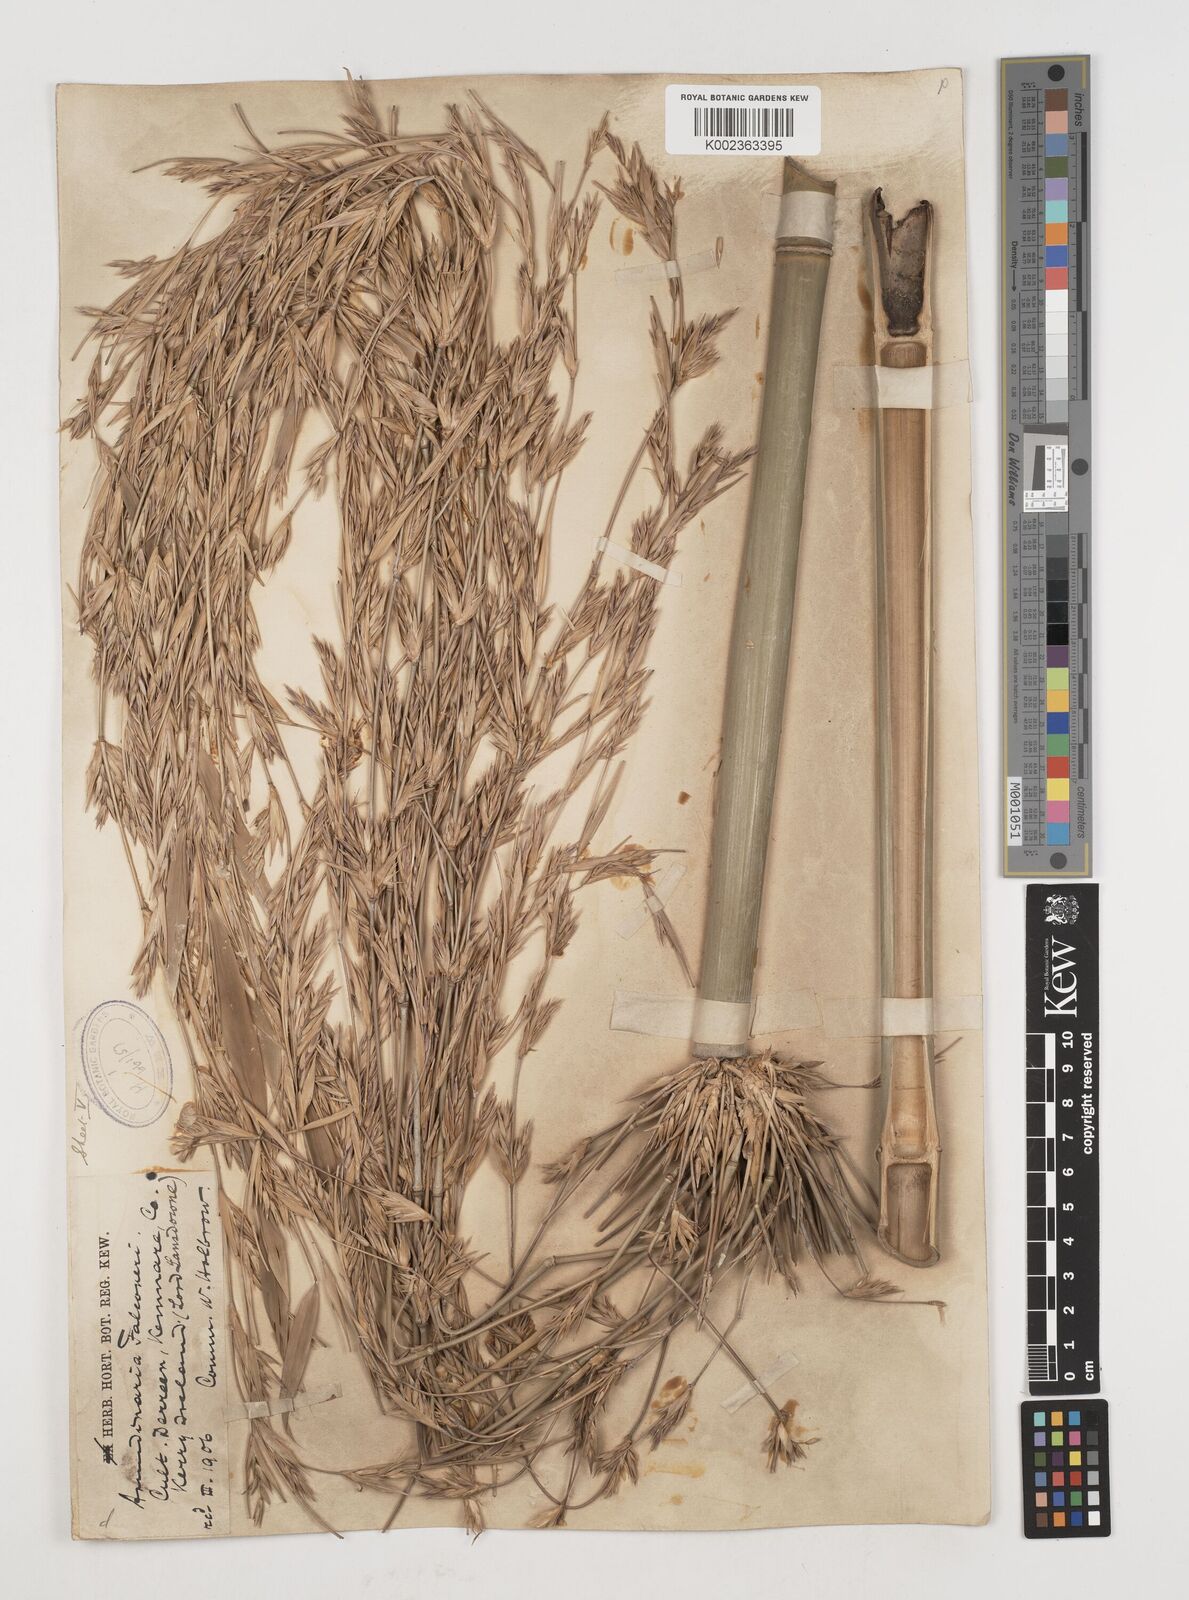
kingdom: Plantae
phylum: Tracheophyta
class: Liliopsida
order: Poales
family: Poaceae
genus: Himalayacalamus
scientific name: Himalayacalamus falconeri
